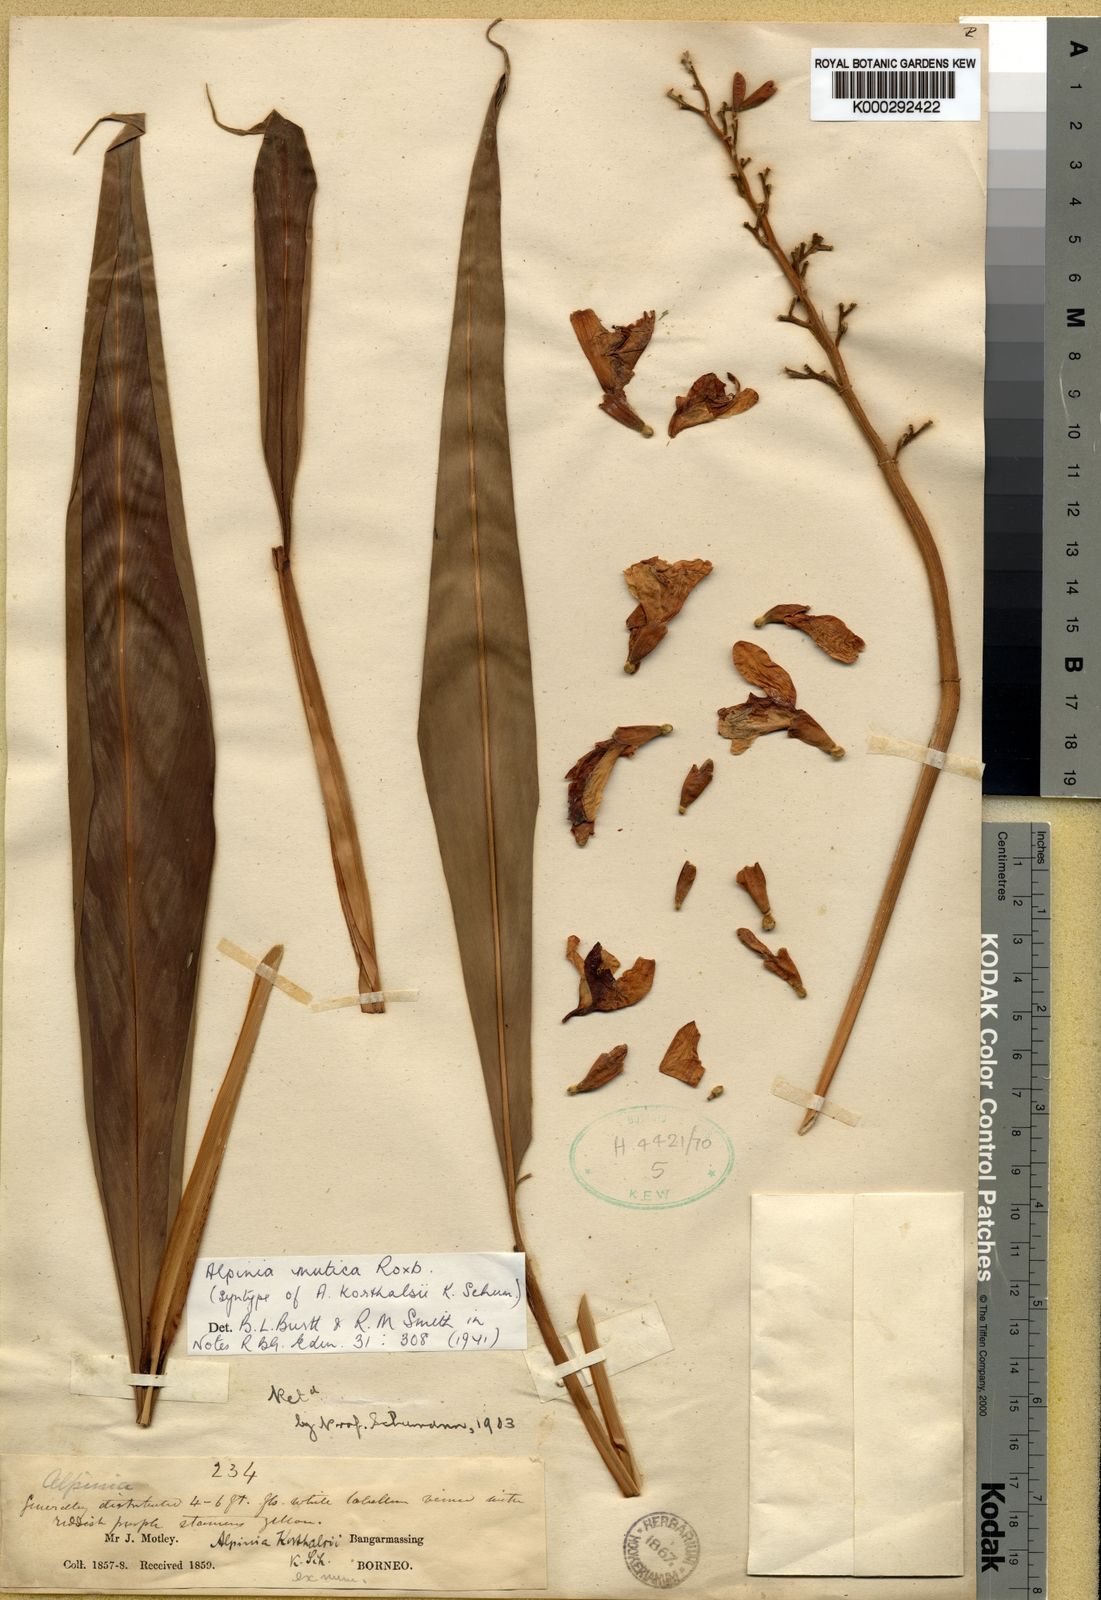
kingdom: Plantae
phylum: Tracheophyta
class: Liliopsida
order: Zingiberales
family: Zingiberaceae
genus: Alpinia
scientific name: Alpinia mutica
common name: Small shell ginger
